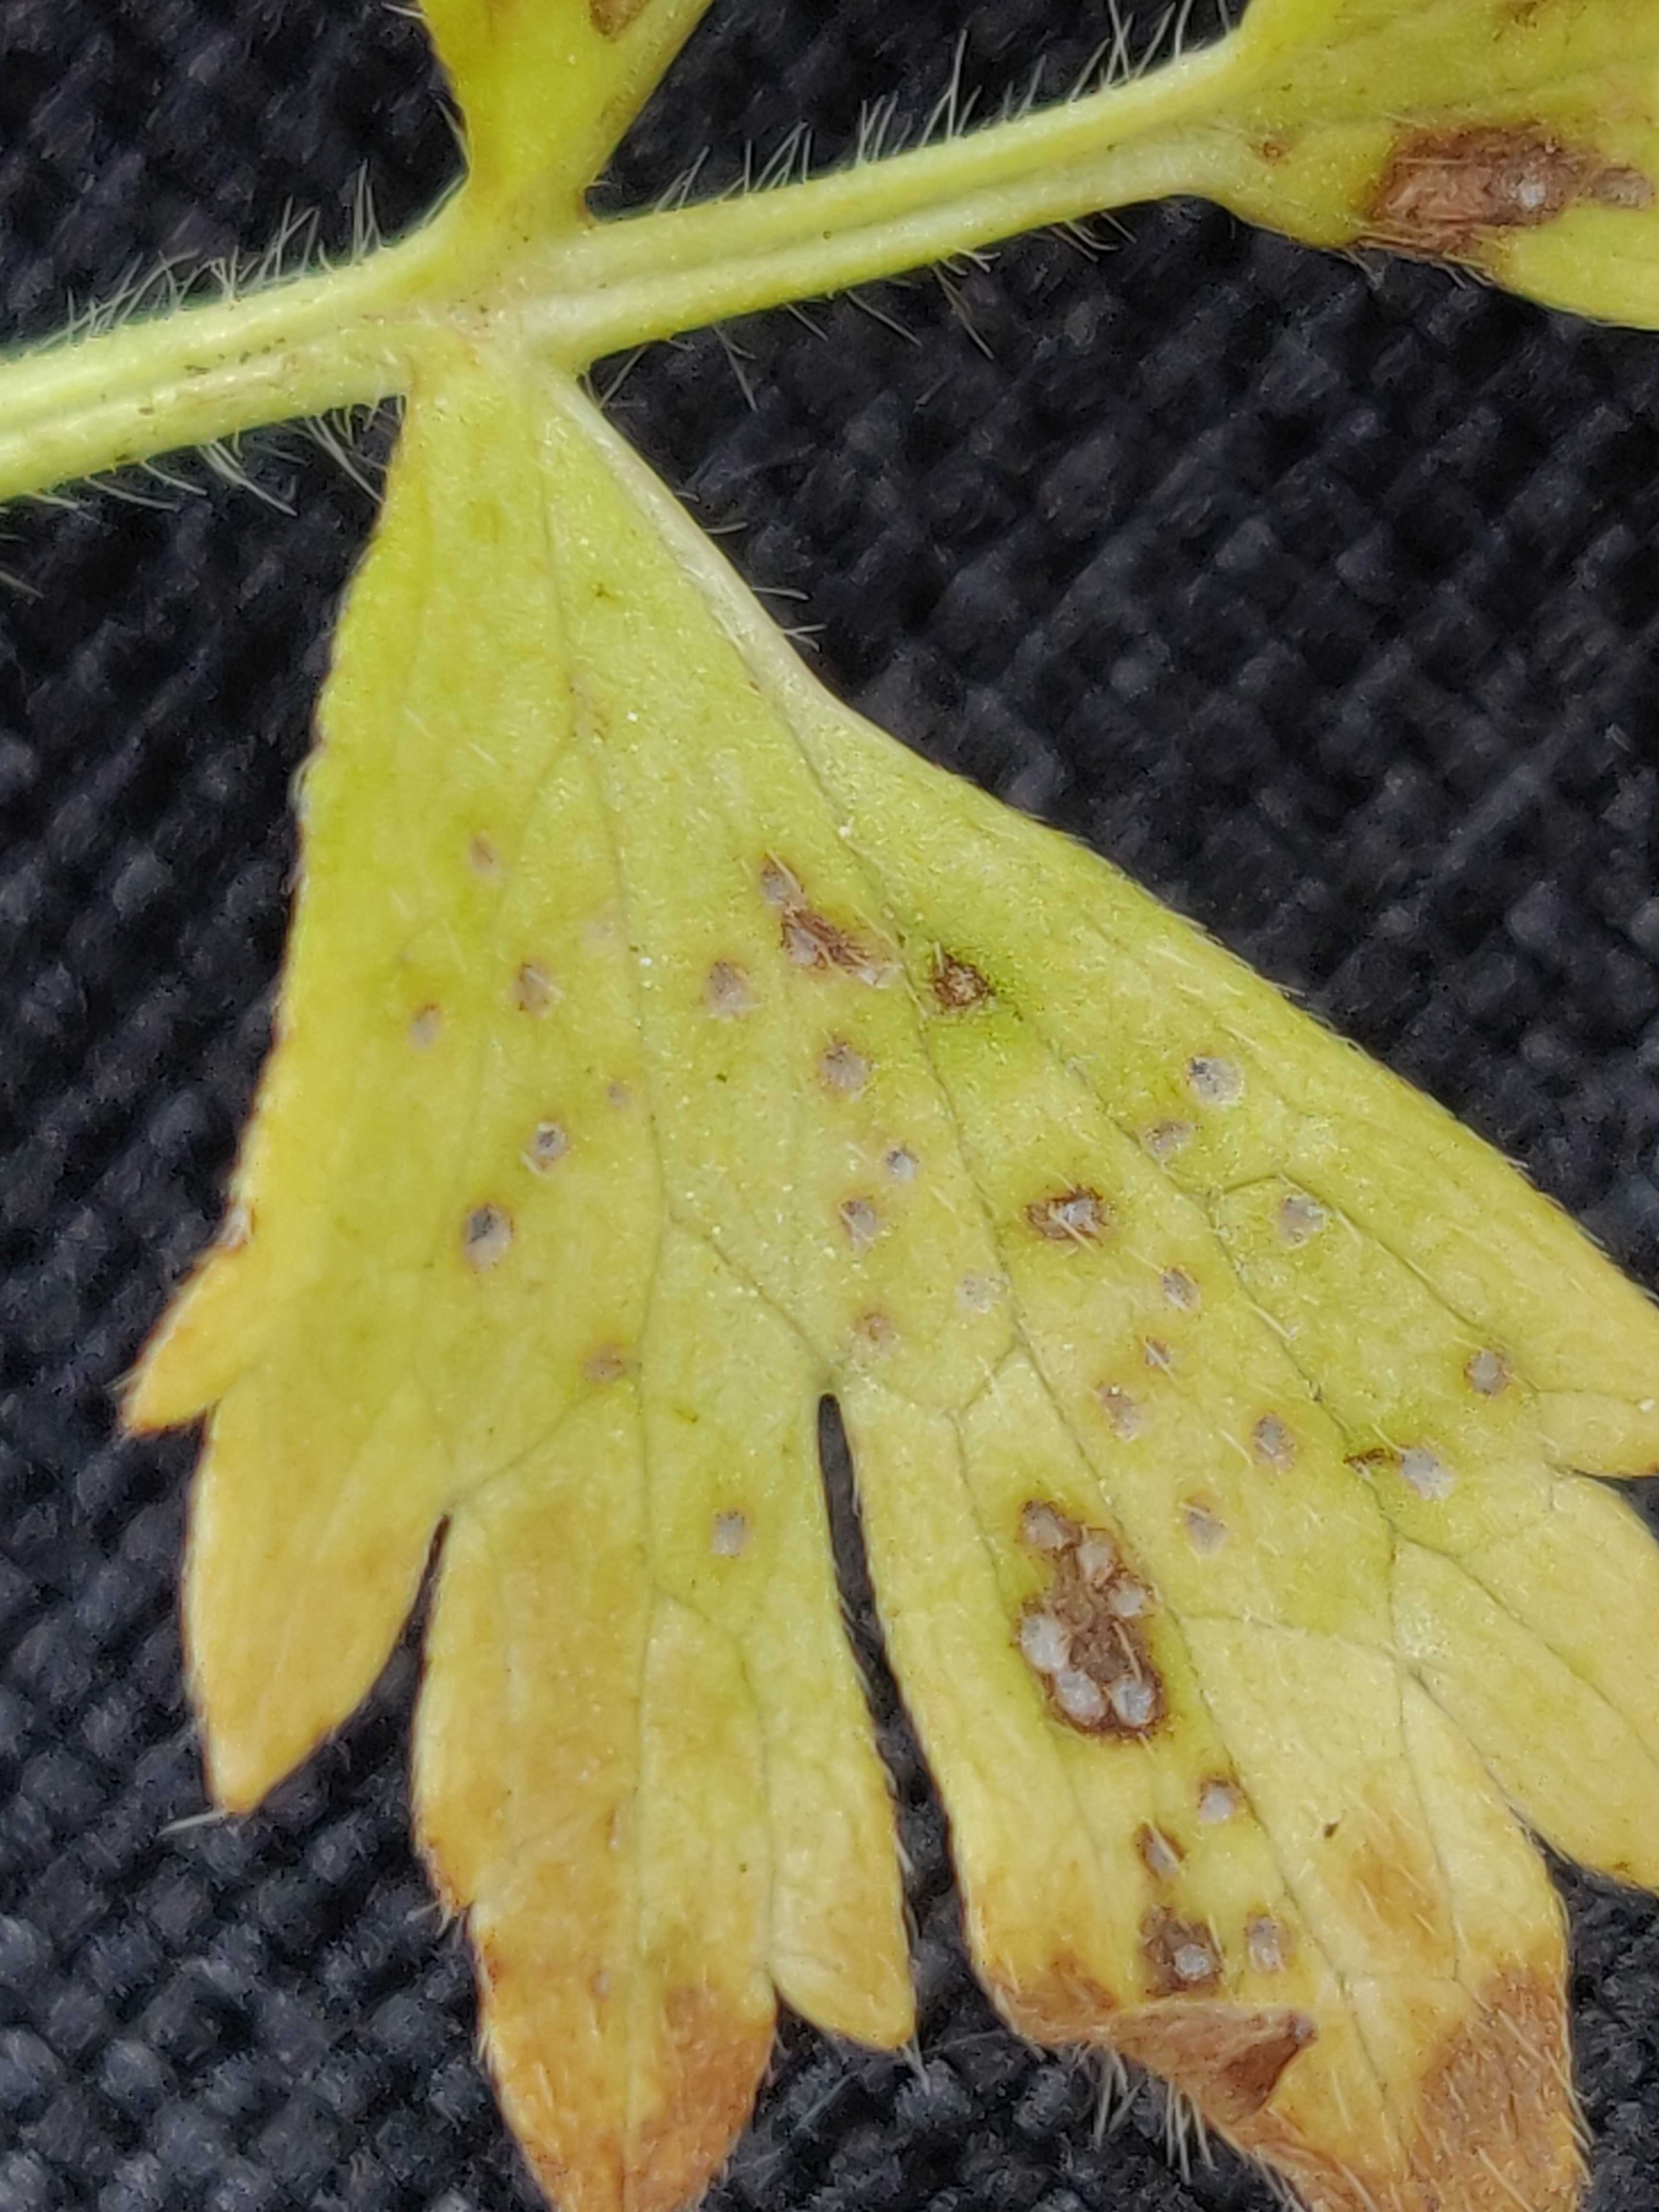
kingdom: Fungi
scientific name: Fungi
